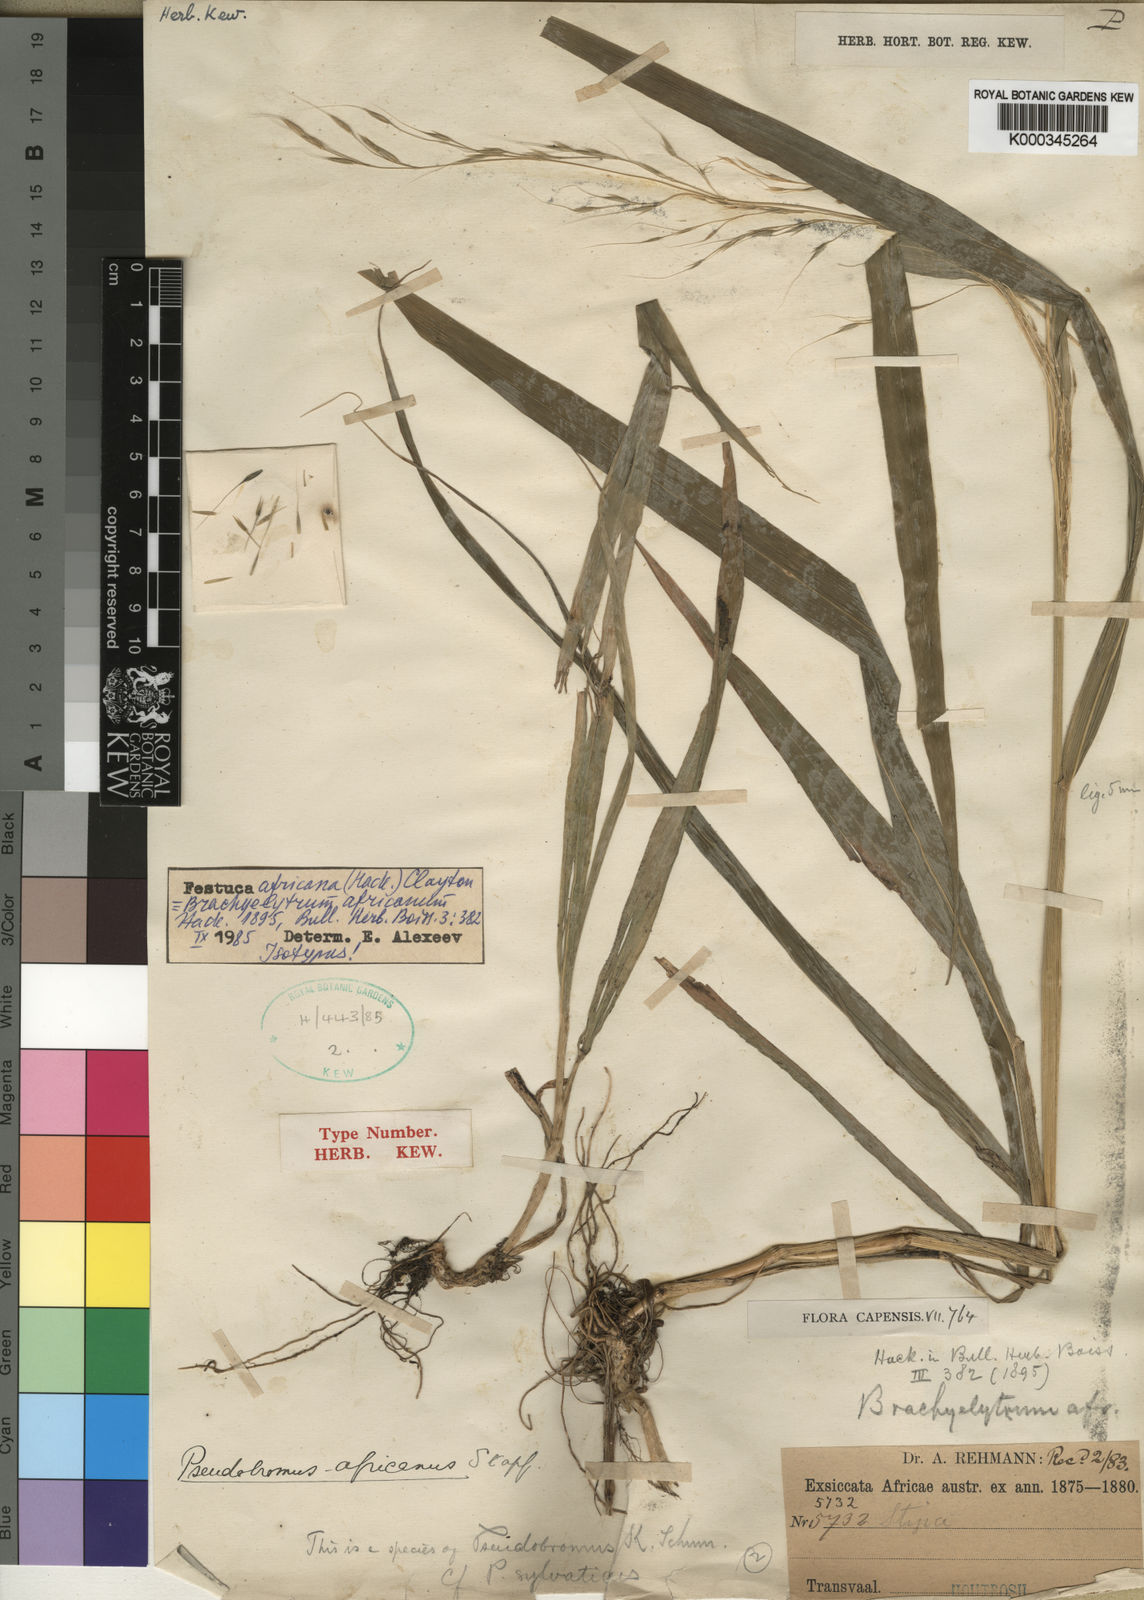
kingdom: Plantae
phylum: Tracheophyta
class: Liliopsida
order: Poales
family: Poaceae
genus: Pseudobromus
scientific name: Pseudobromus africanus
